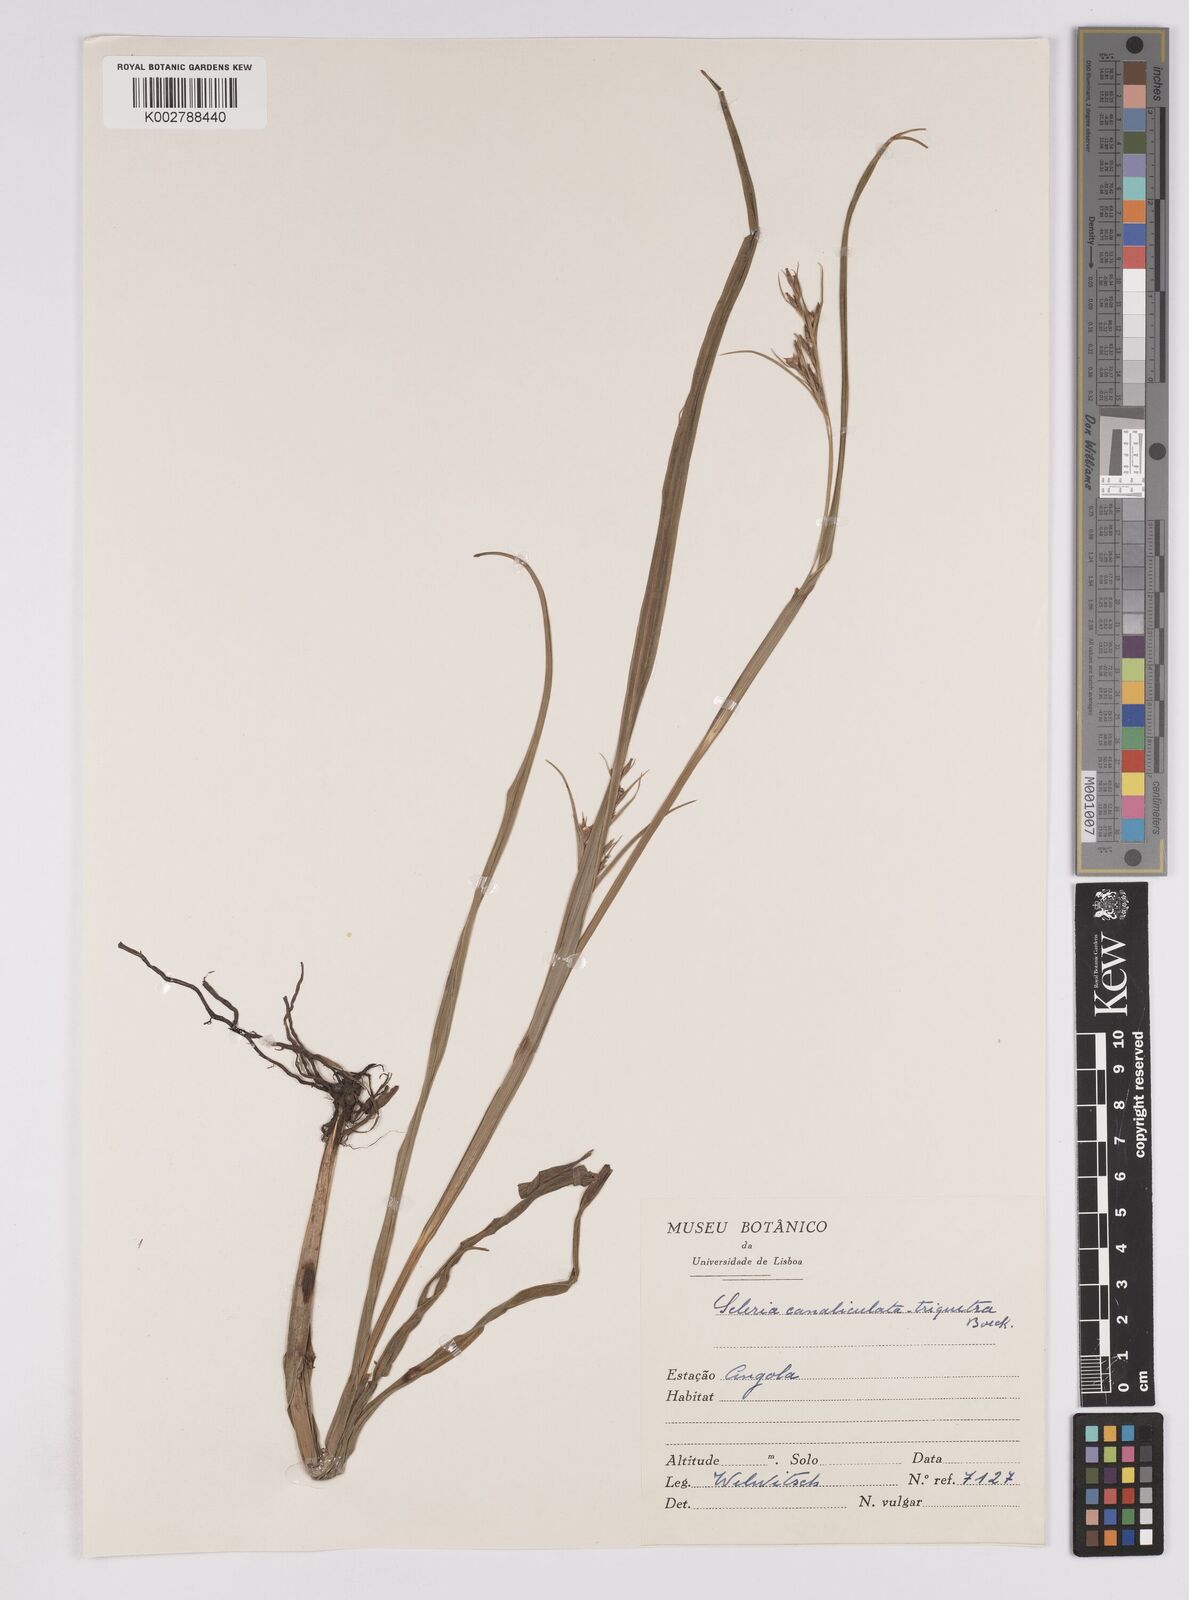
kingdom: Plantae
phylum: Tracheophyta
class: Liliopsida
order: Poales
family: Cyperaceae
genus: Scleria
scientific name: Scleria lagoensis
